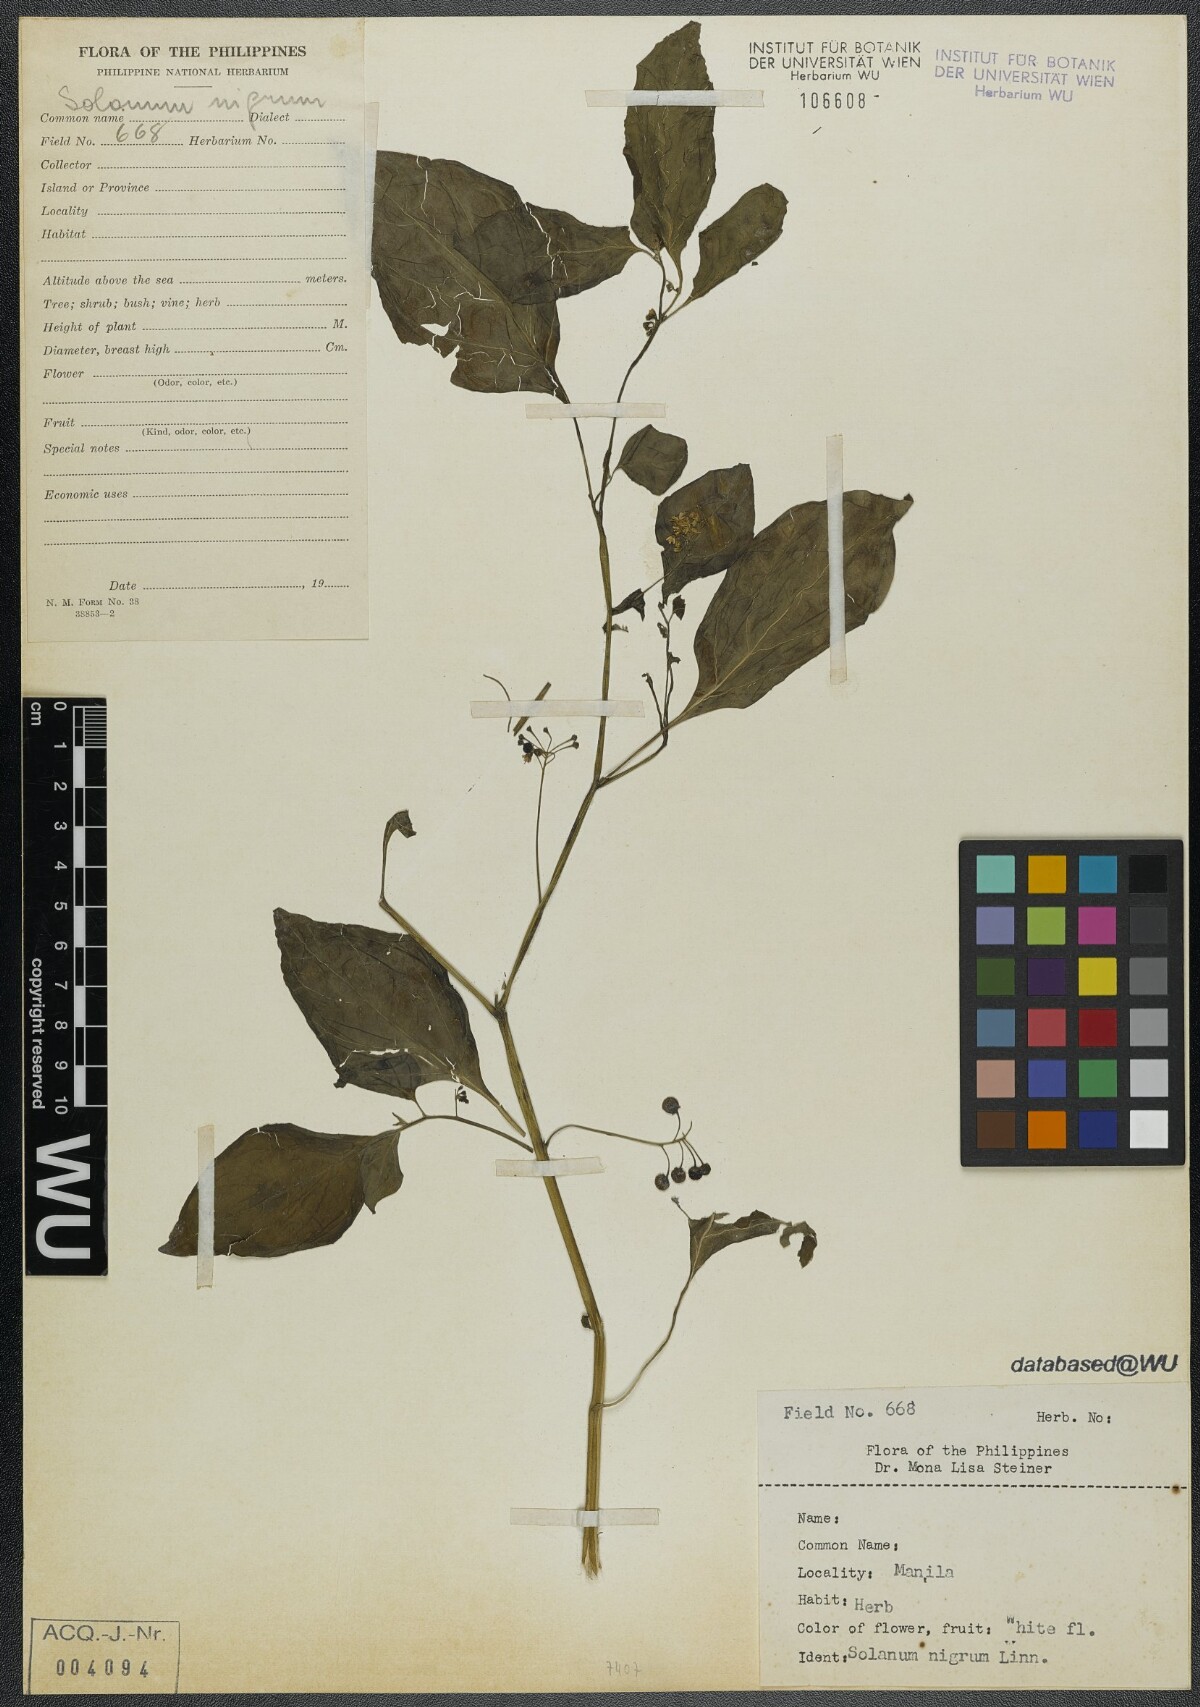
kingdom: Plantae
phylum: Tracheophyta
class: Magnoliopsida
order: Solanales
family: Solanaceae
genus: Solanum
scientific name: Solanum nigrum
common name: Black nightshade
